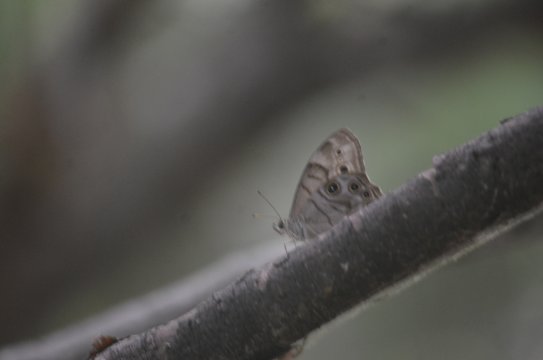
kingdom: Animalia
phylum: Arthropoda
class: Insecta
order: Lepidoptera
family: Nymphalidae
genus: Lethe
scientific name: Lethe anthedon
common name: Northern Pearly-Eye
